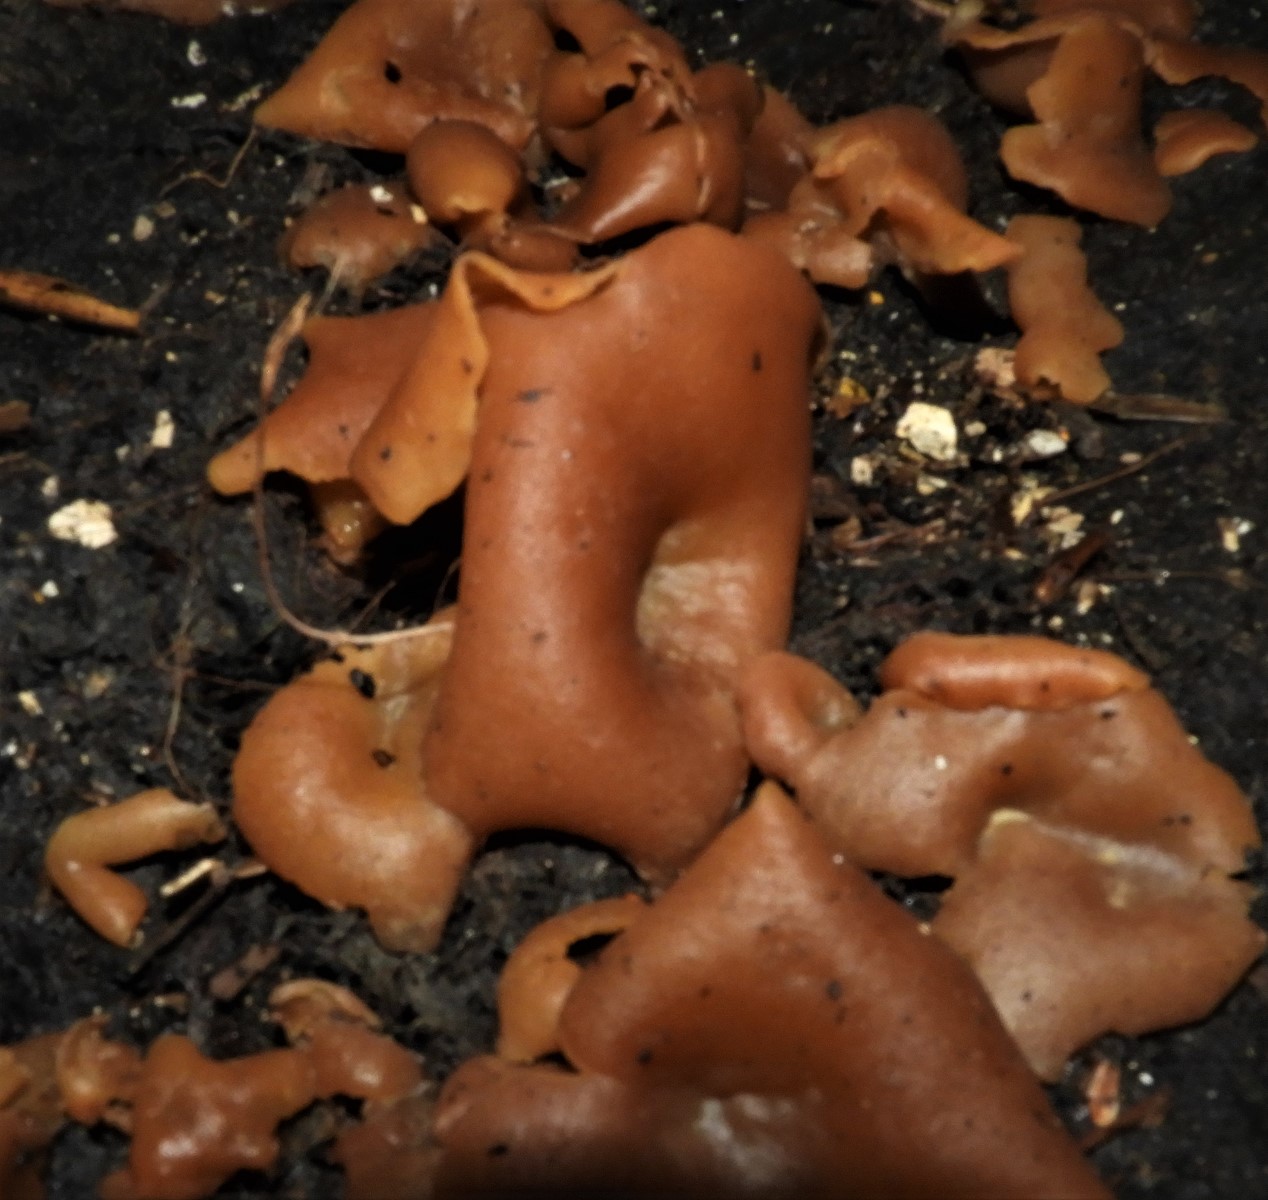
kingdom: Fungi
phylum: Ascomycota
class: Pezizomycetes
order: Pezizales
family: Pezizaceae
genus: Peziza
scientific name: Peziza
